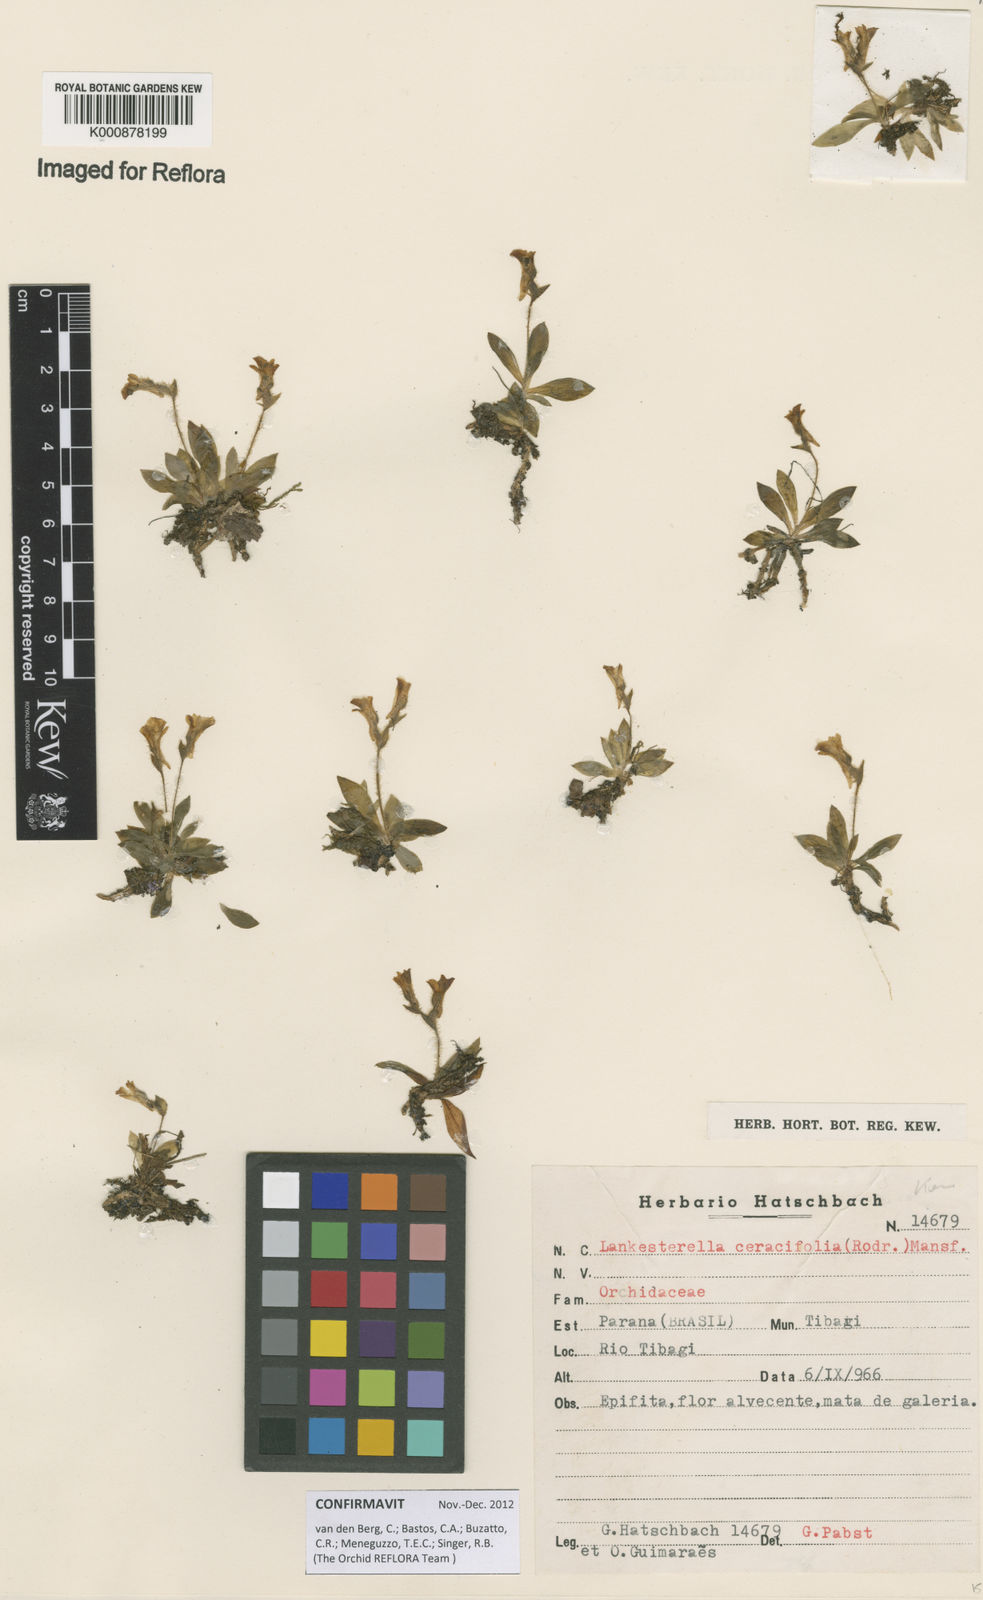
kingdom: Plantae
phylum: Tracheophyta
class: Liliopsida
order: Asparagales
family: Orchidaceae
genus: Lankesterella
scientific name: Lankesterella ceracifolia
